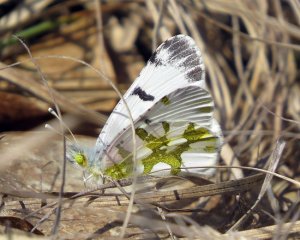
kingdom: Animalia
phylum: Arthropoda
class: Insecta
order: Lepidoptera
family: Pieridae
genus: Euchloe
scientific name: Euchloe olympia
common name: Olympia Marble
